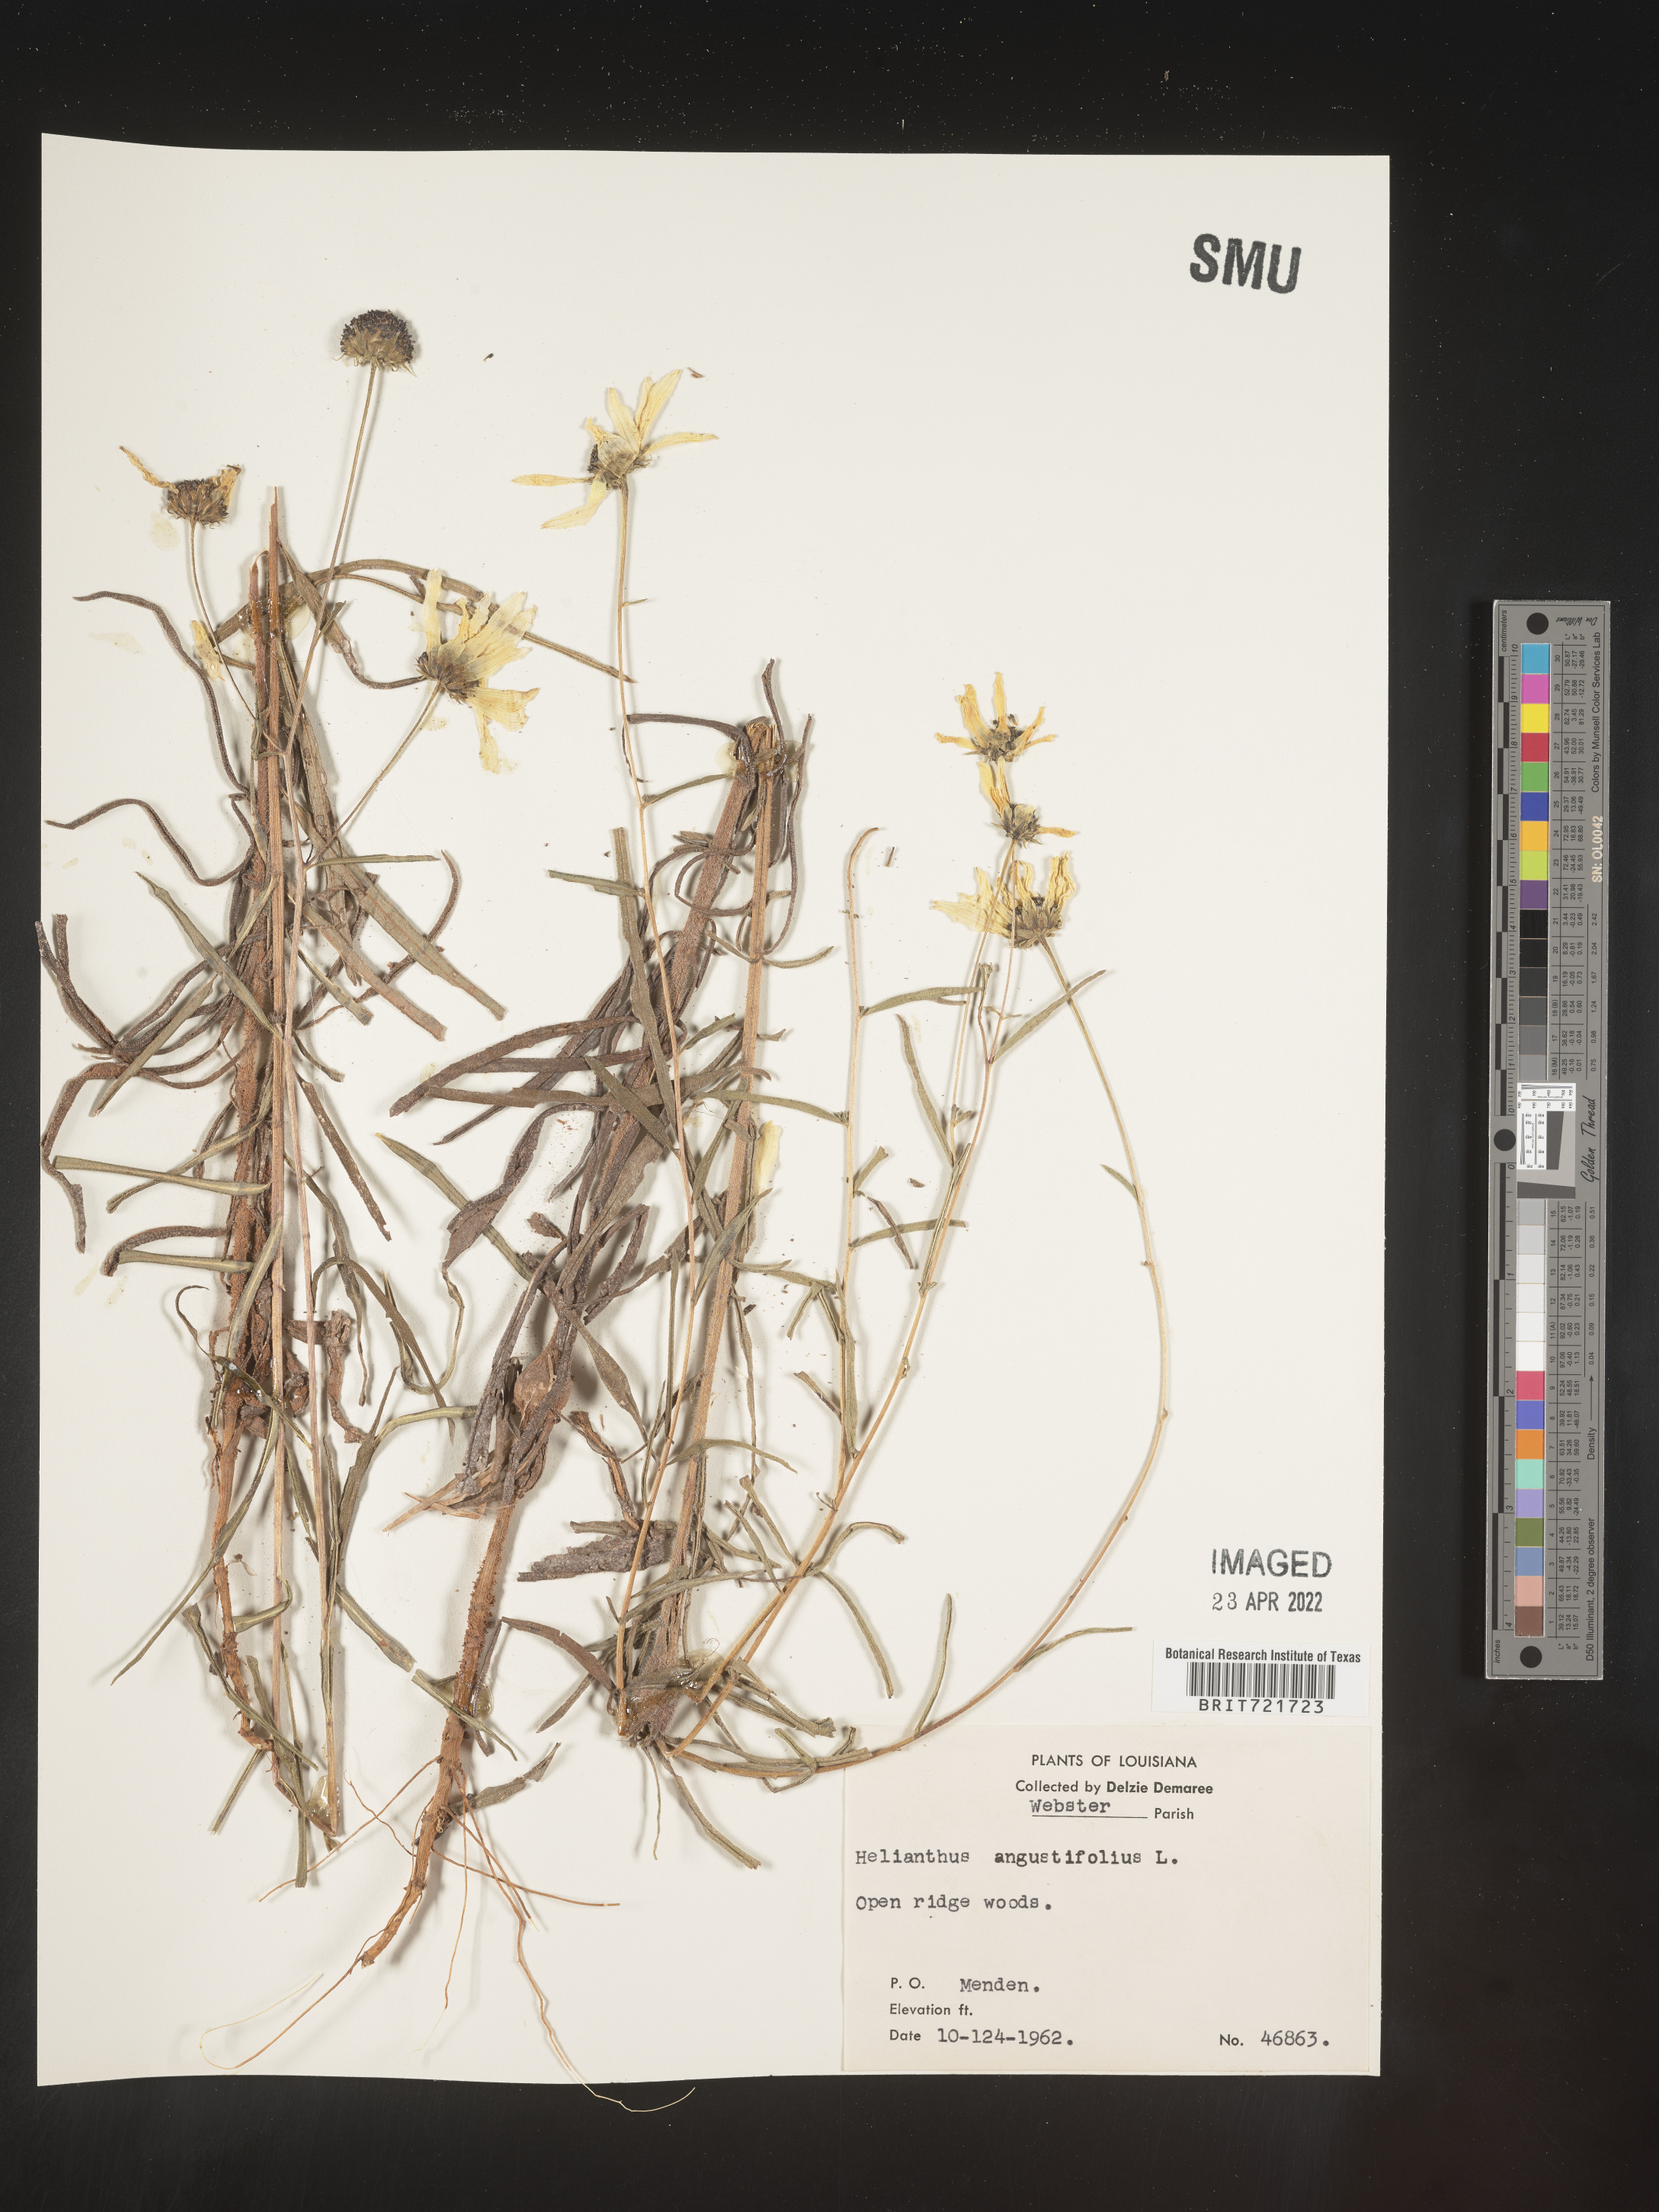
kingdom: Plantae
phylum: Tracheophyta
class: Magnoliopsida
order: Asterales
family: Asteraceae
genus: Helianthus
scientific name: Helianthus angustifolius
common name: Swamp sunflower
